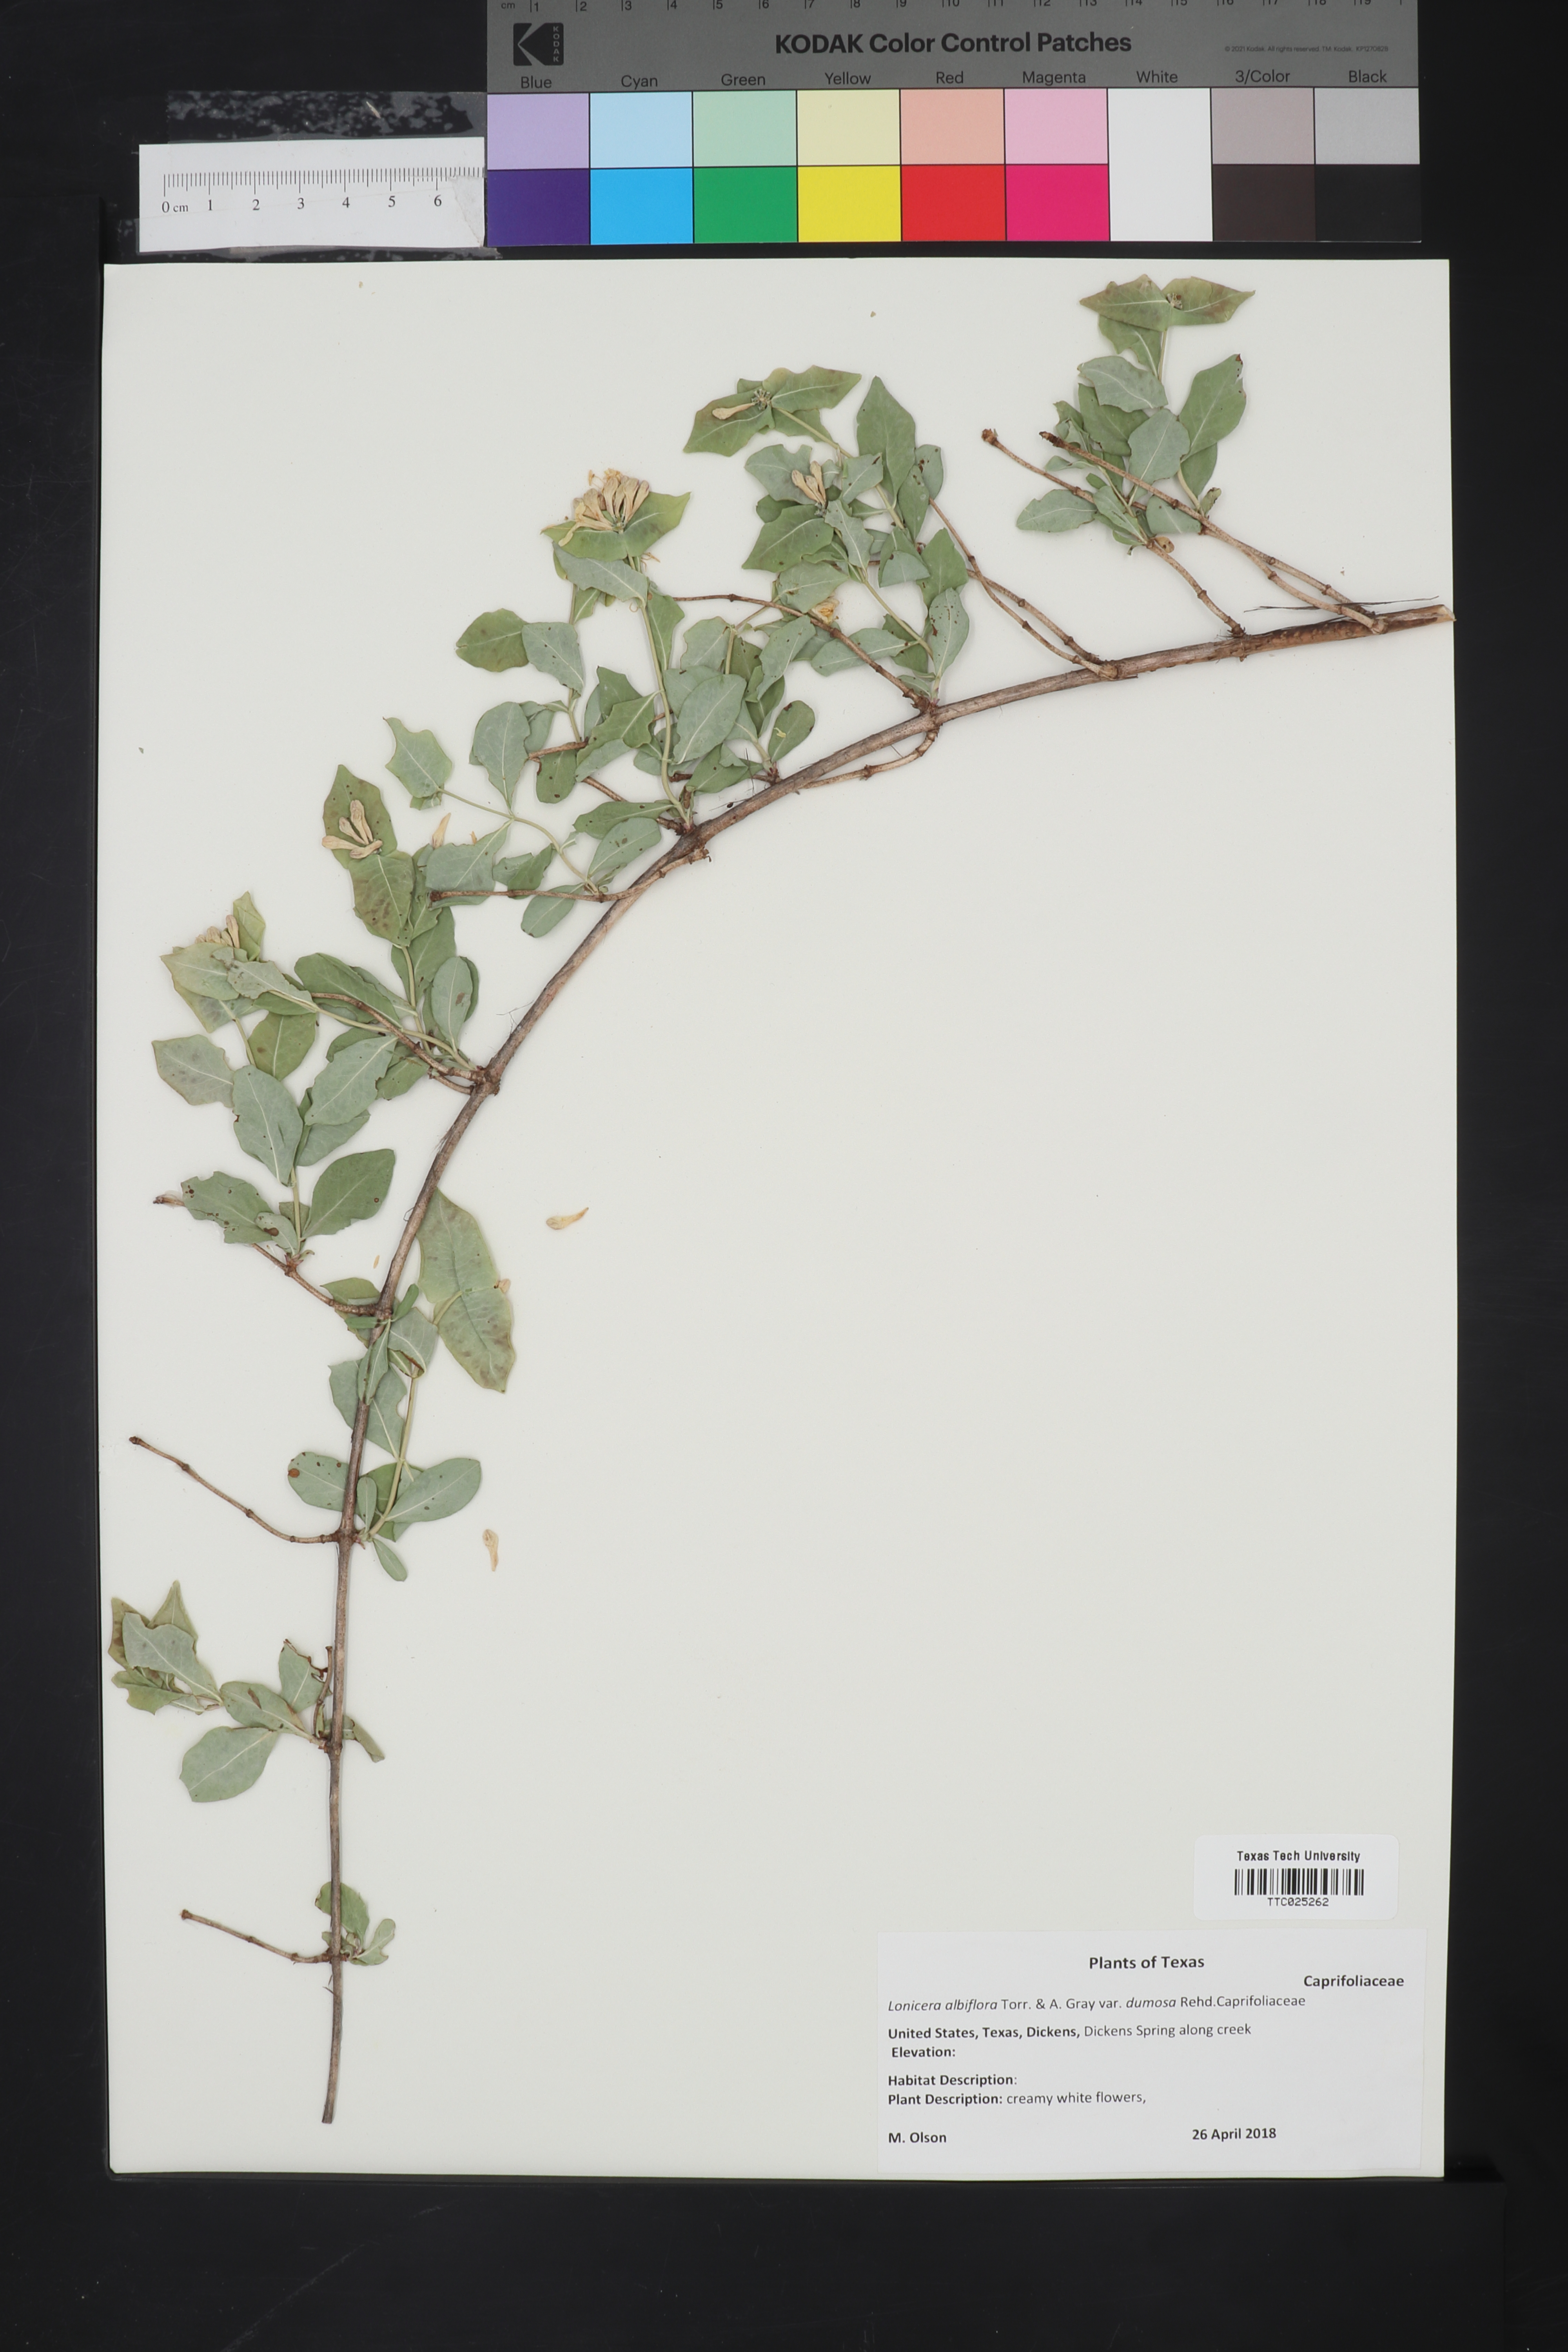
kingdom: Plantae
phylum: Tracheophyta
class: Magnoliopsida
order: Dipsacales
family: Caprifoliaceae
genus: Lonicera
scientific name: Lonicera albiflora
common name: White honeysuckle
